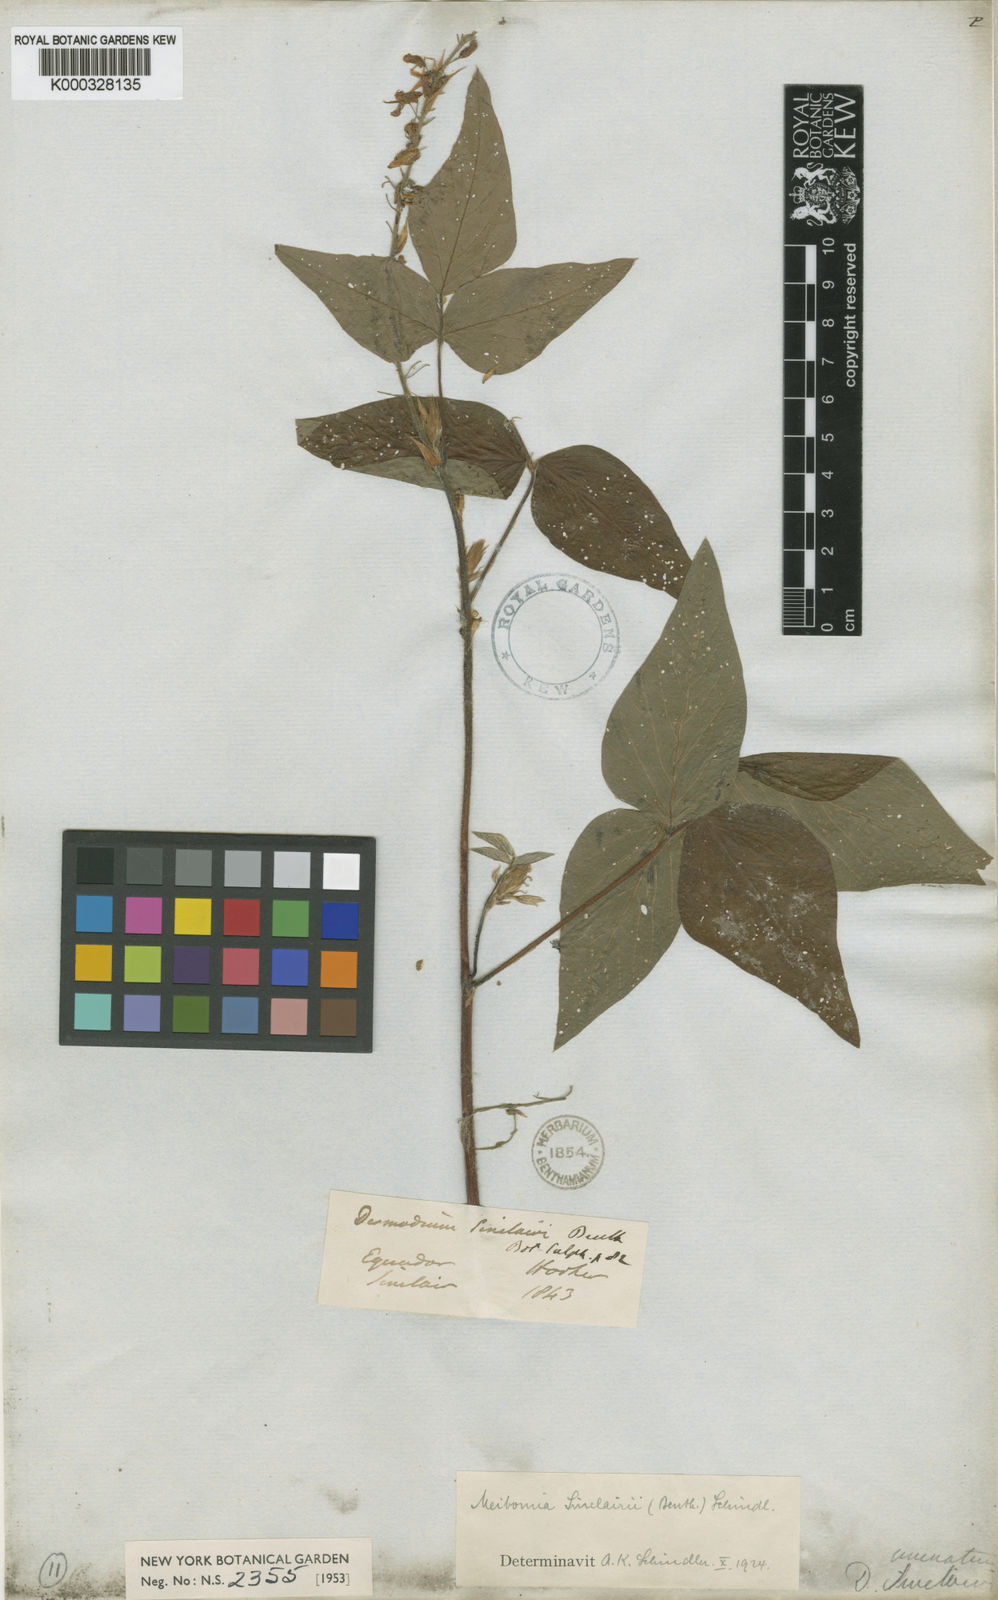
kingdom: Plantae
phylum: Tracheophyta
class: Magnoliopsida
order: Fabales
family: Fabaceae
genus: Desmodium
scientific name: Desmodium uncinatum
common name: Silverleaf desmodium
